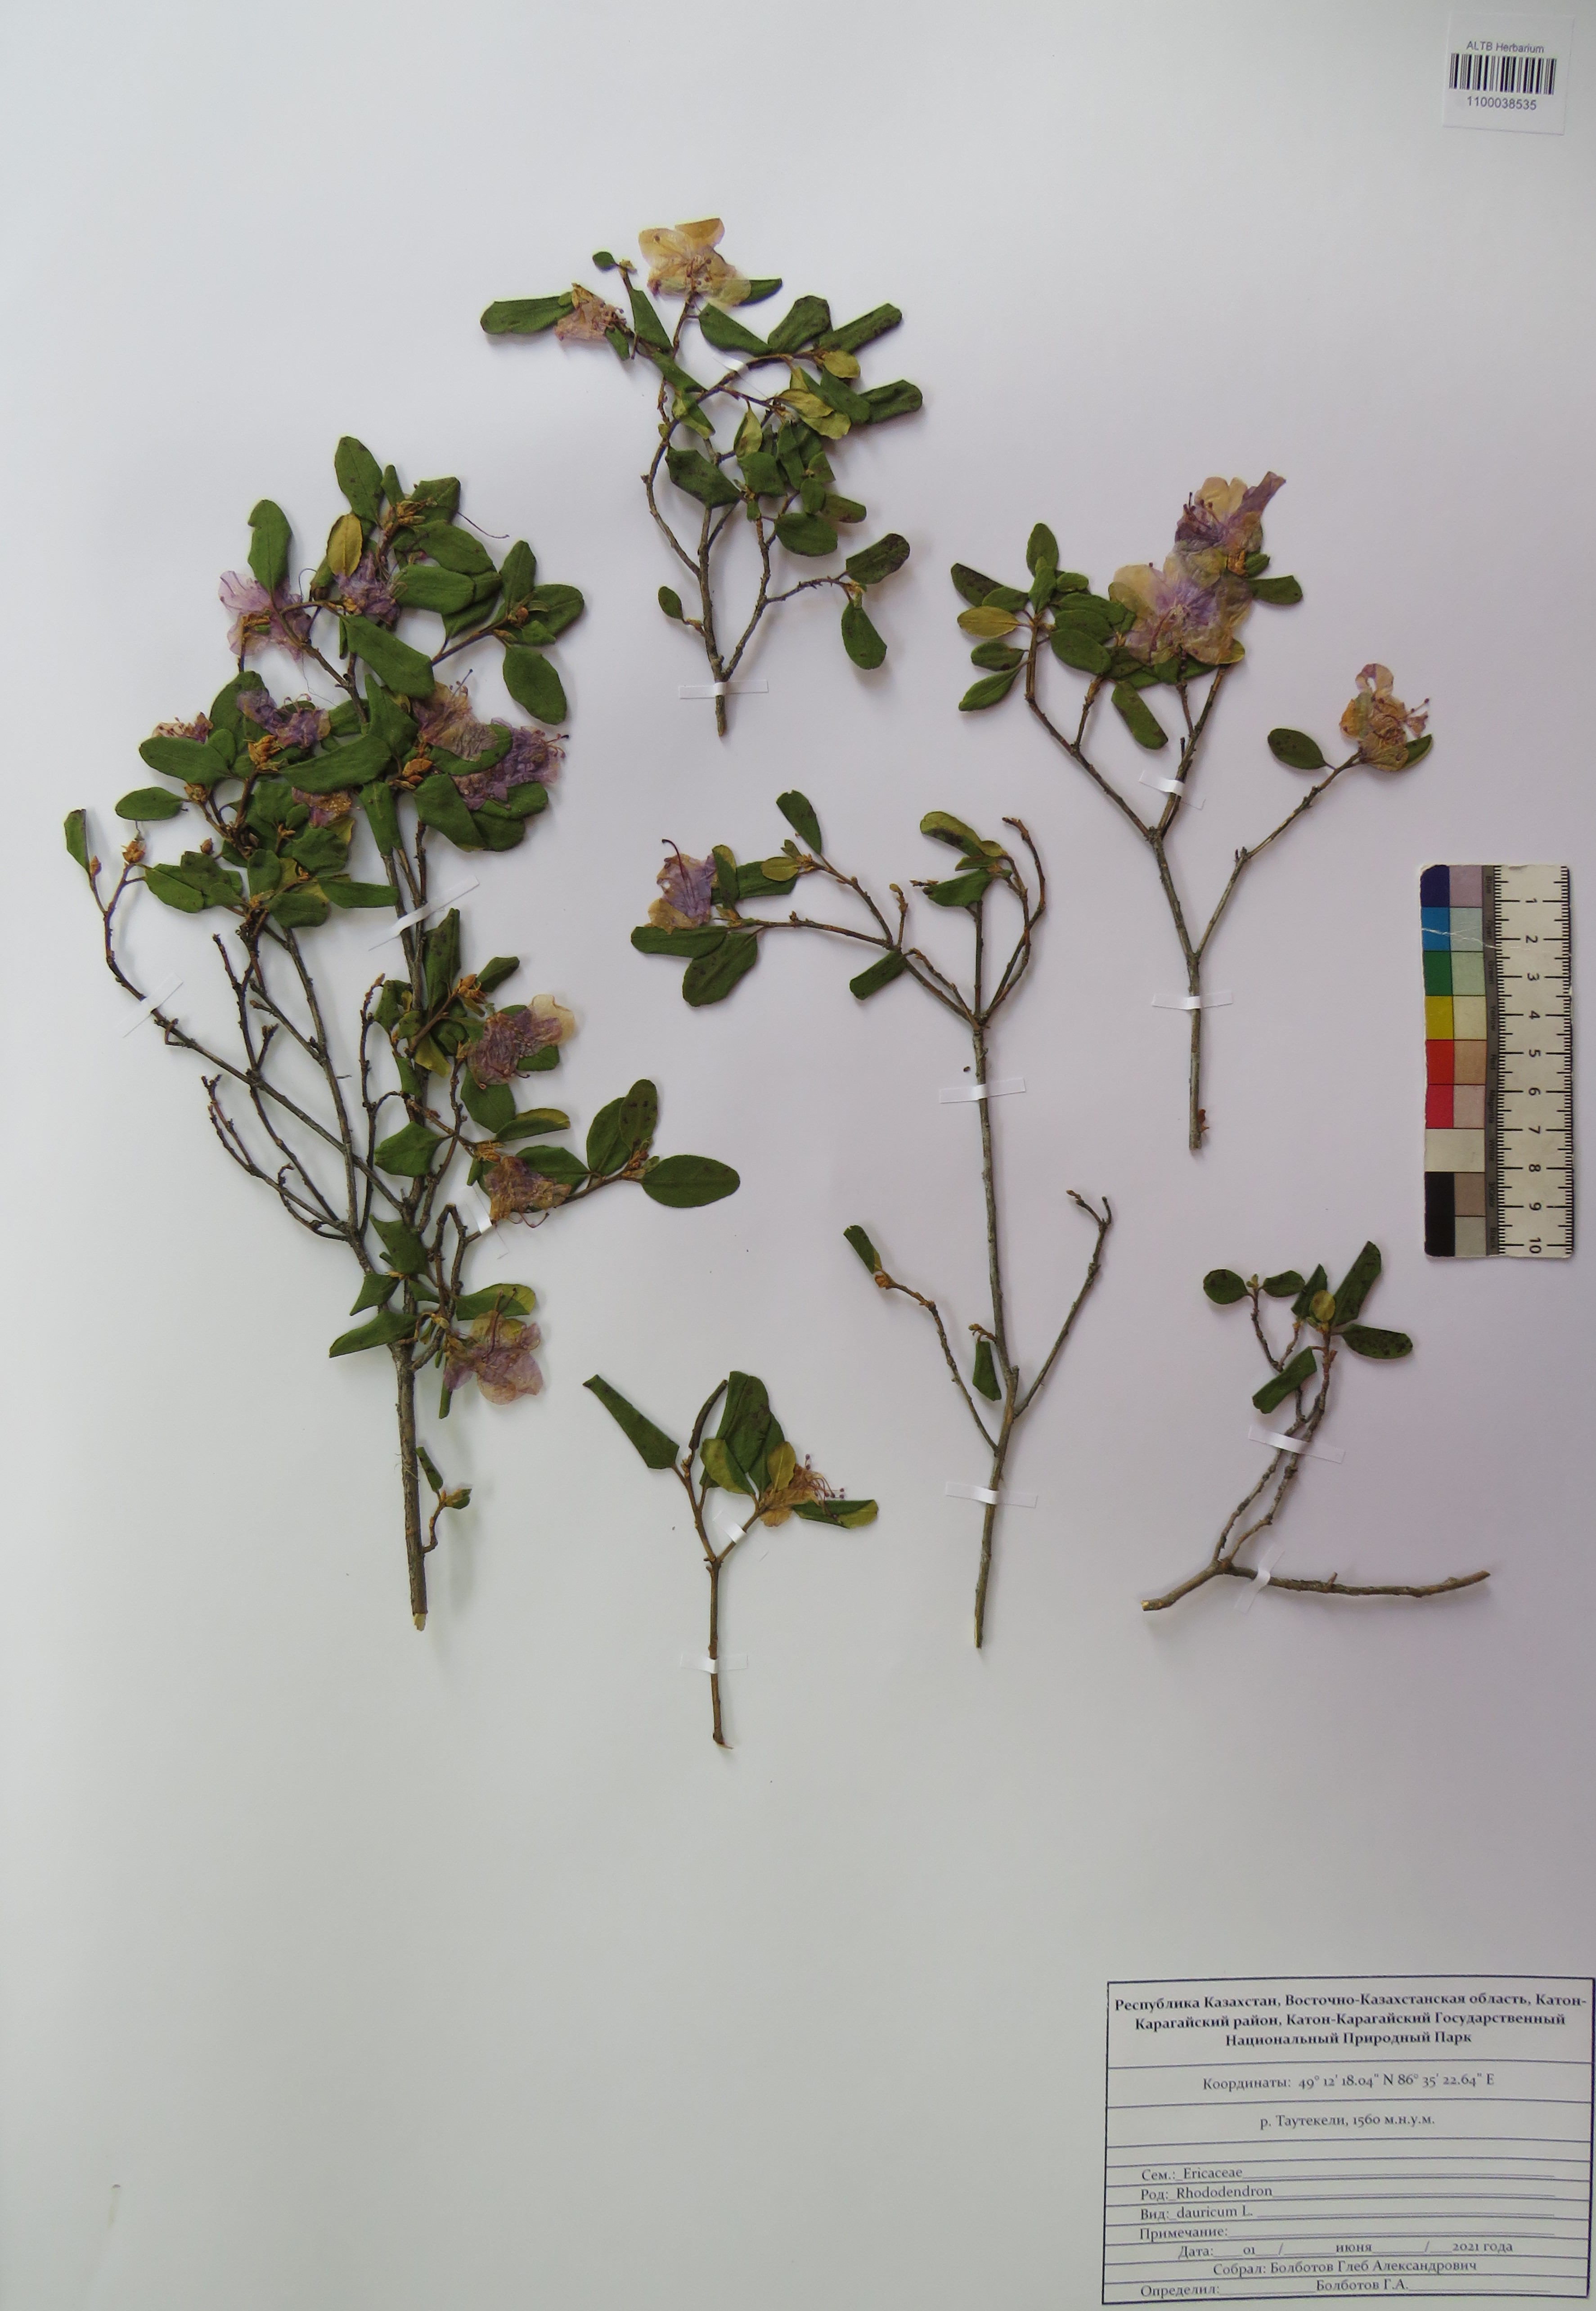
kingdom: Plantae
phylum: Tracheophyta
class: Magnoliopsida
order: Ericales
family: Ericaceae
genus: Rhododendron
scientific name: Rhododendron dauricum
